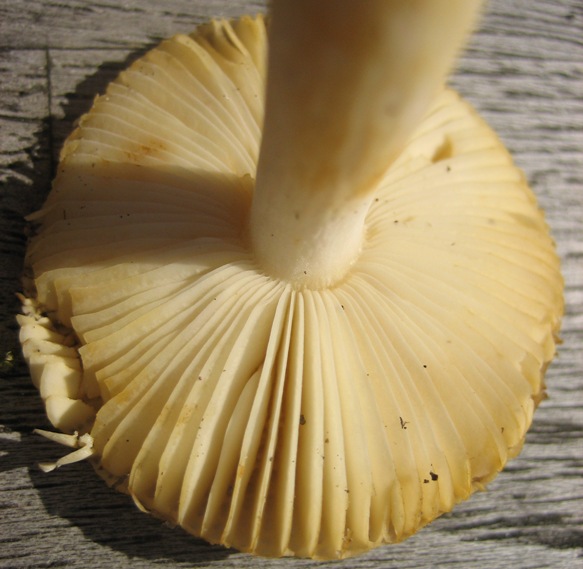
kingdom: Fungi
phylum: Basidiomycota
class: Agaricomycetes
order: Russulales
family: Russulaceae
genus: Russula
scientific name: Russula puellaris
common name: gulstokket skørhat
